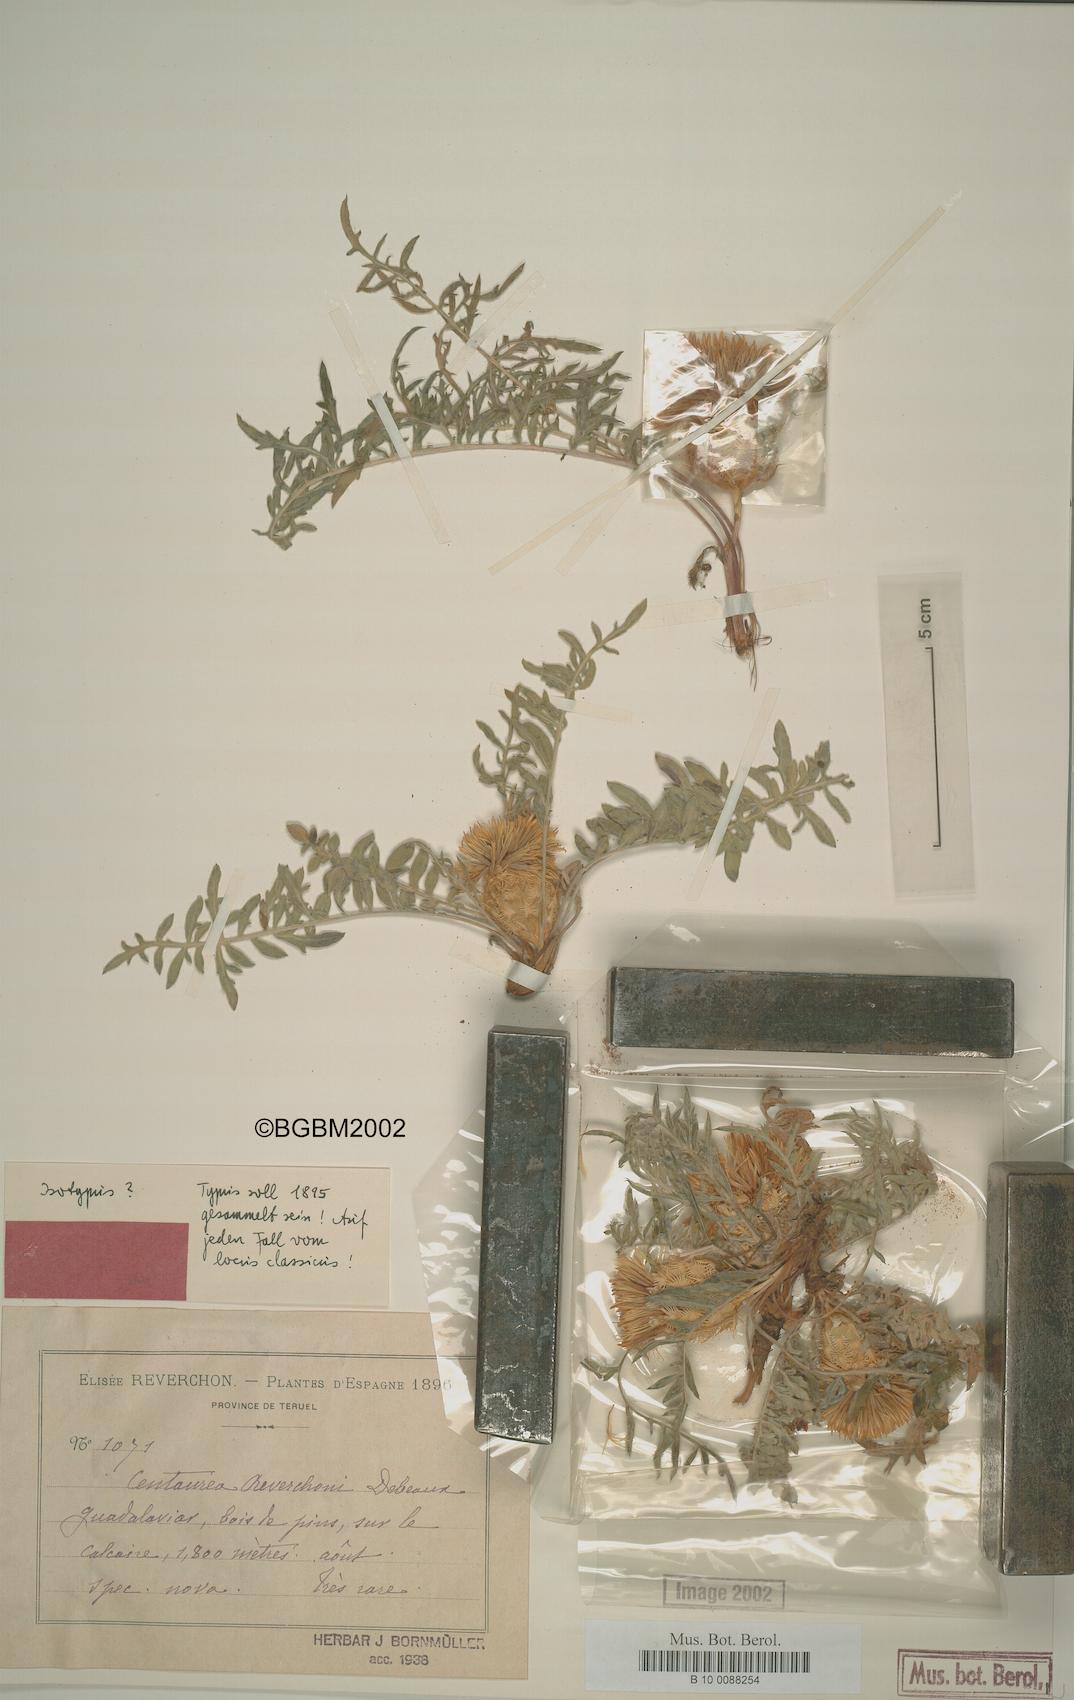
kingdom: Plantae
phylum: Tracheophyta
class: Magnoliopsida
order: Asterales
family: Asteraceae
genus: Centaurea
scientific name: Centaurea reverchonii
